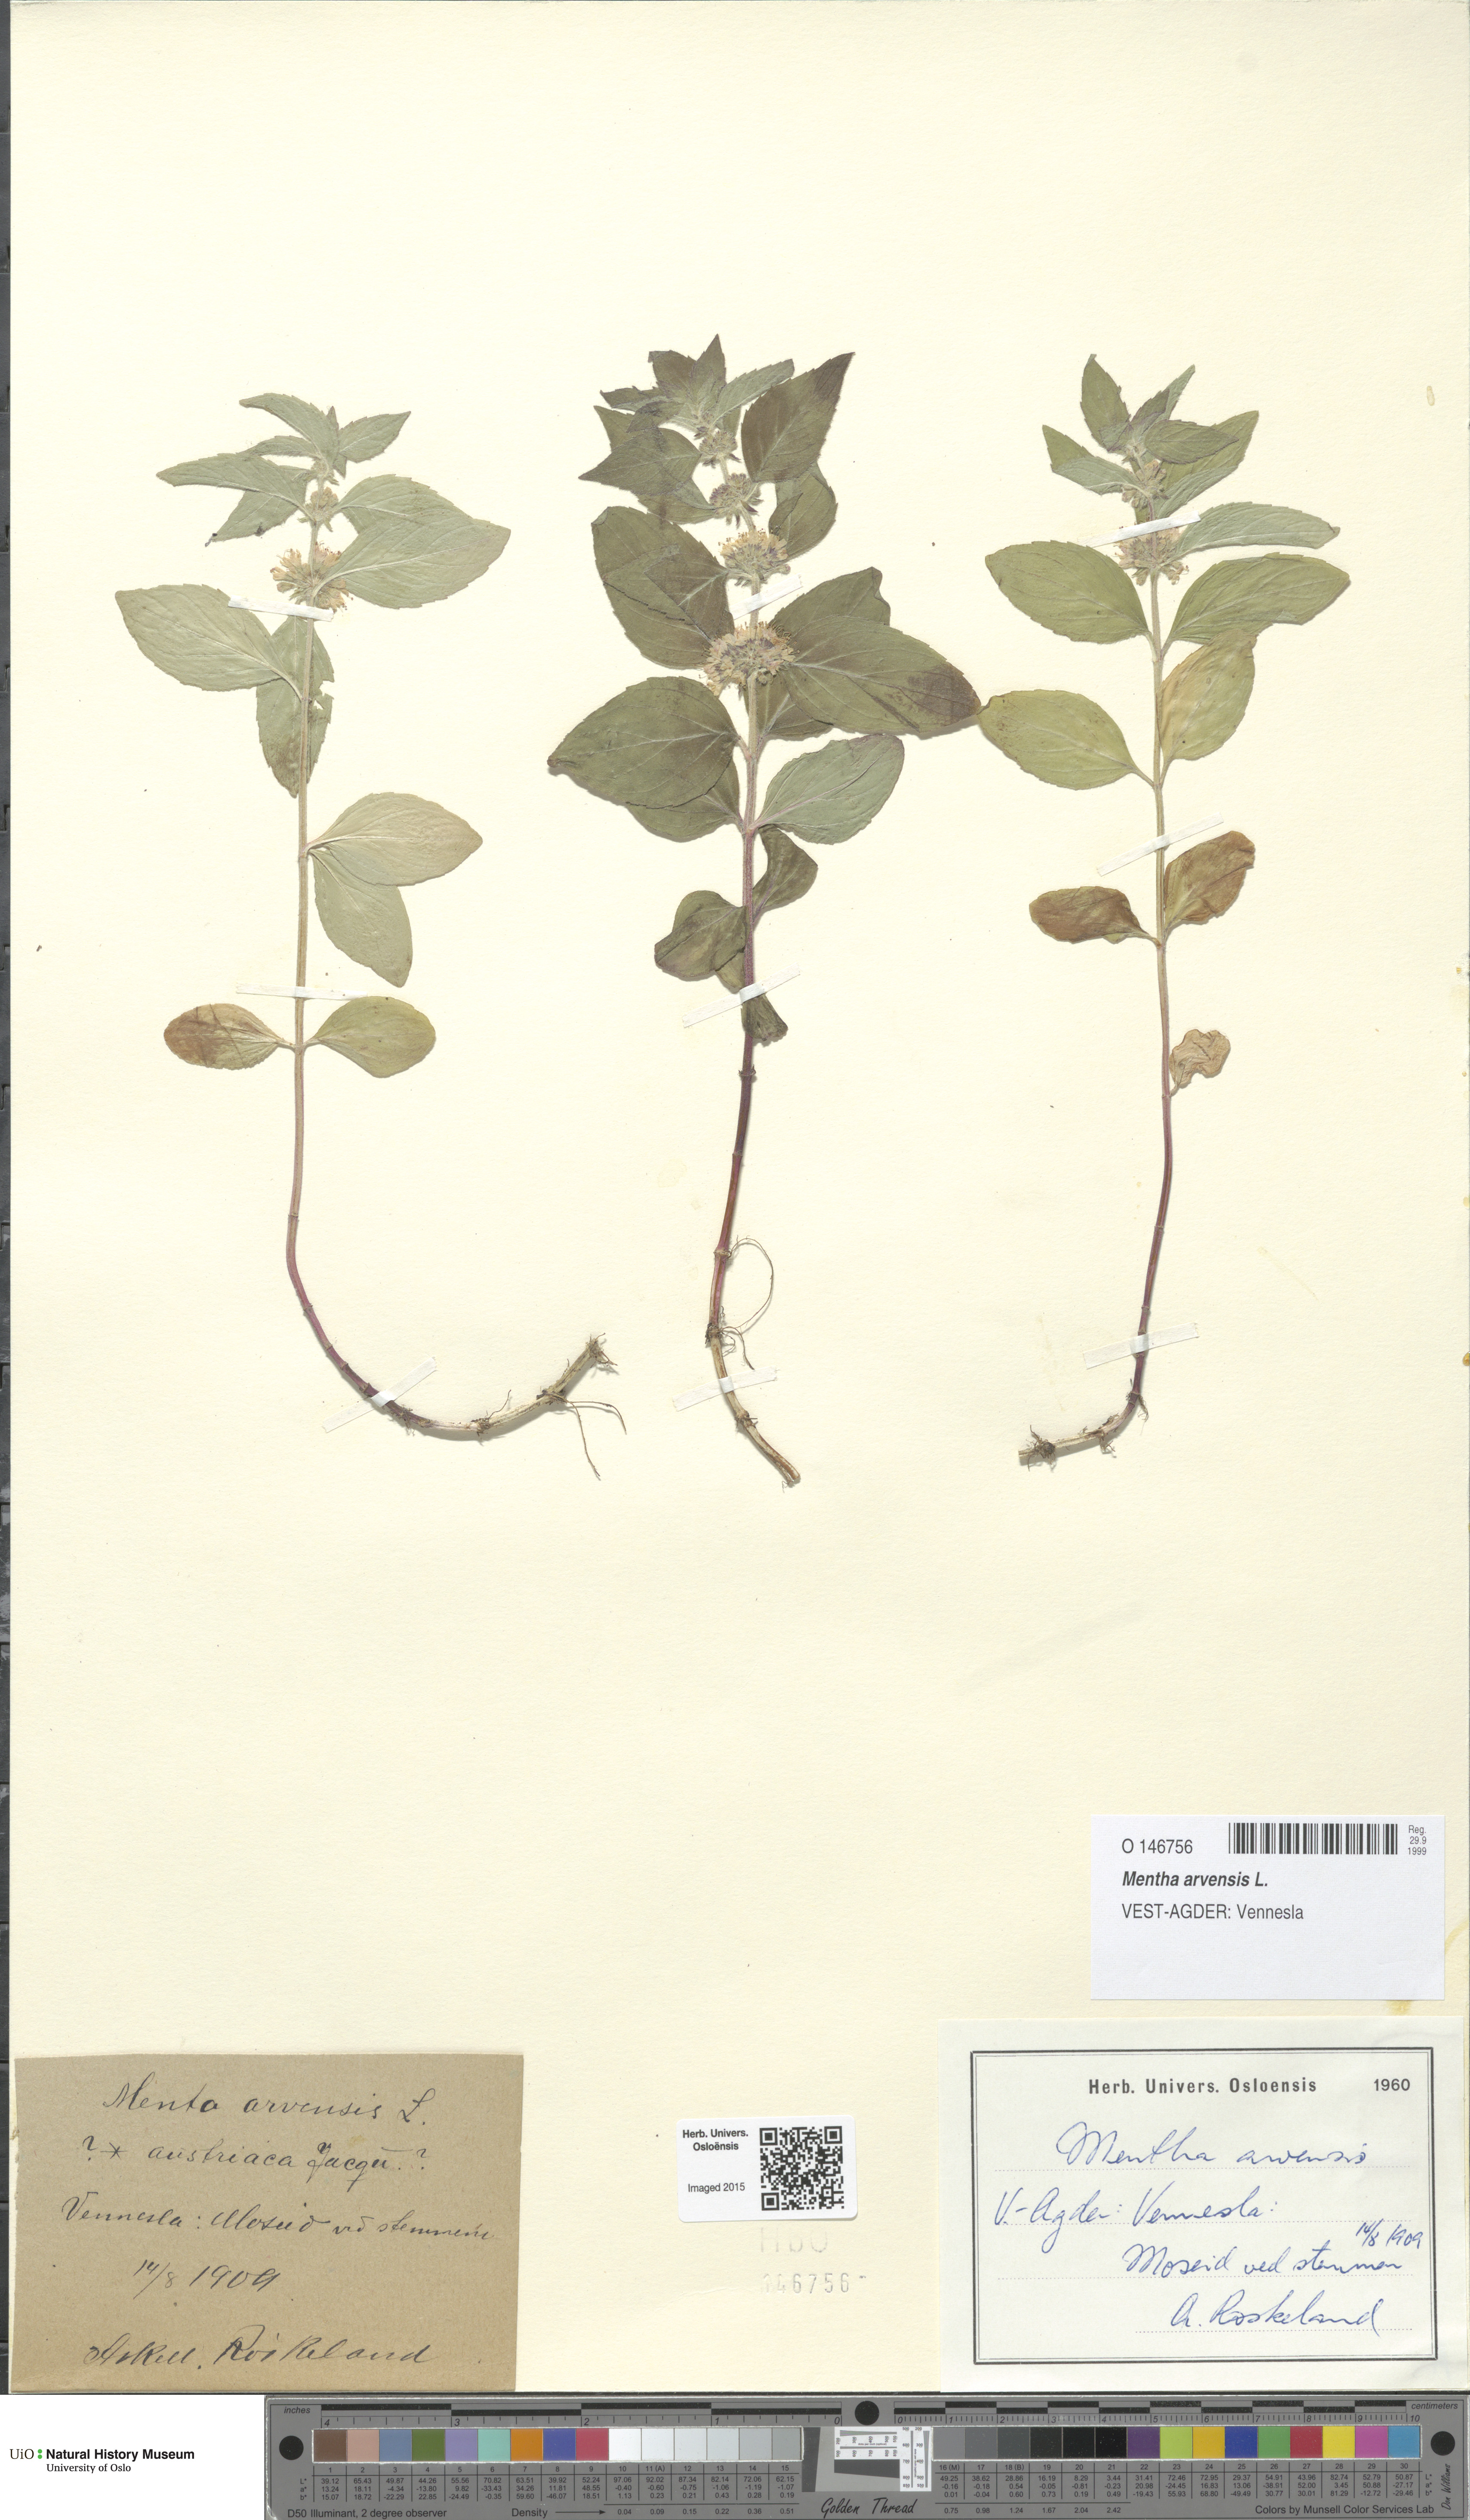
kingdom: Plantae
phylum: Tracheophyta
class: Magnoliopsida
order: Lamiales
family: Lamiaceae
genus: Mentha
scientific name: Mentha arvensis
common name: Corn mint
